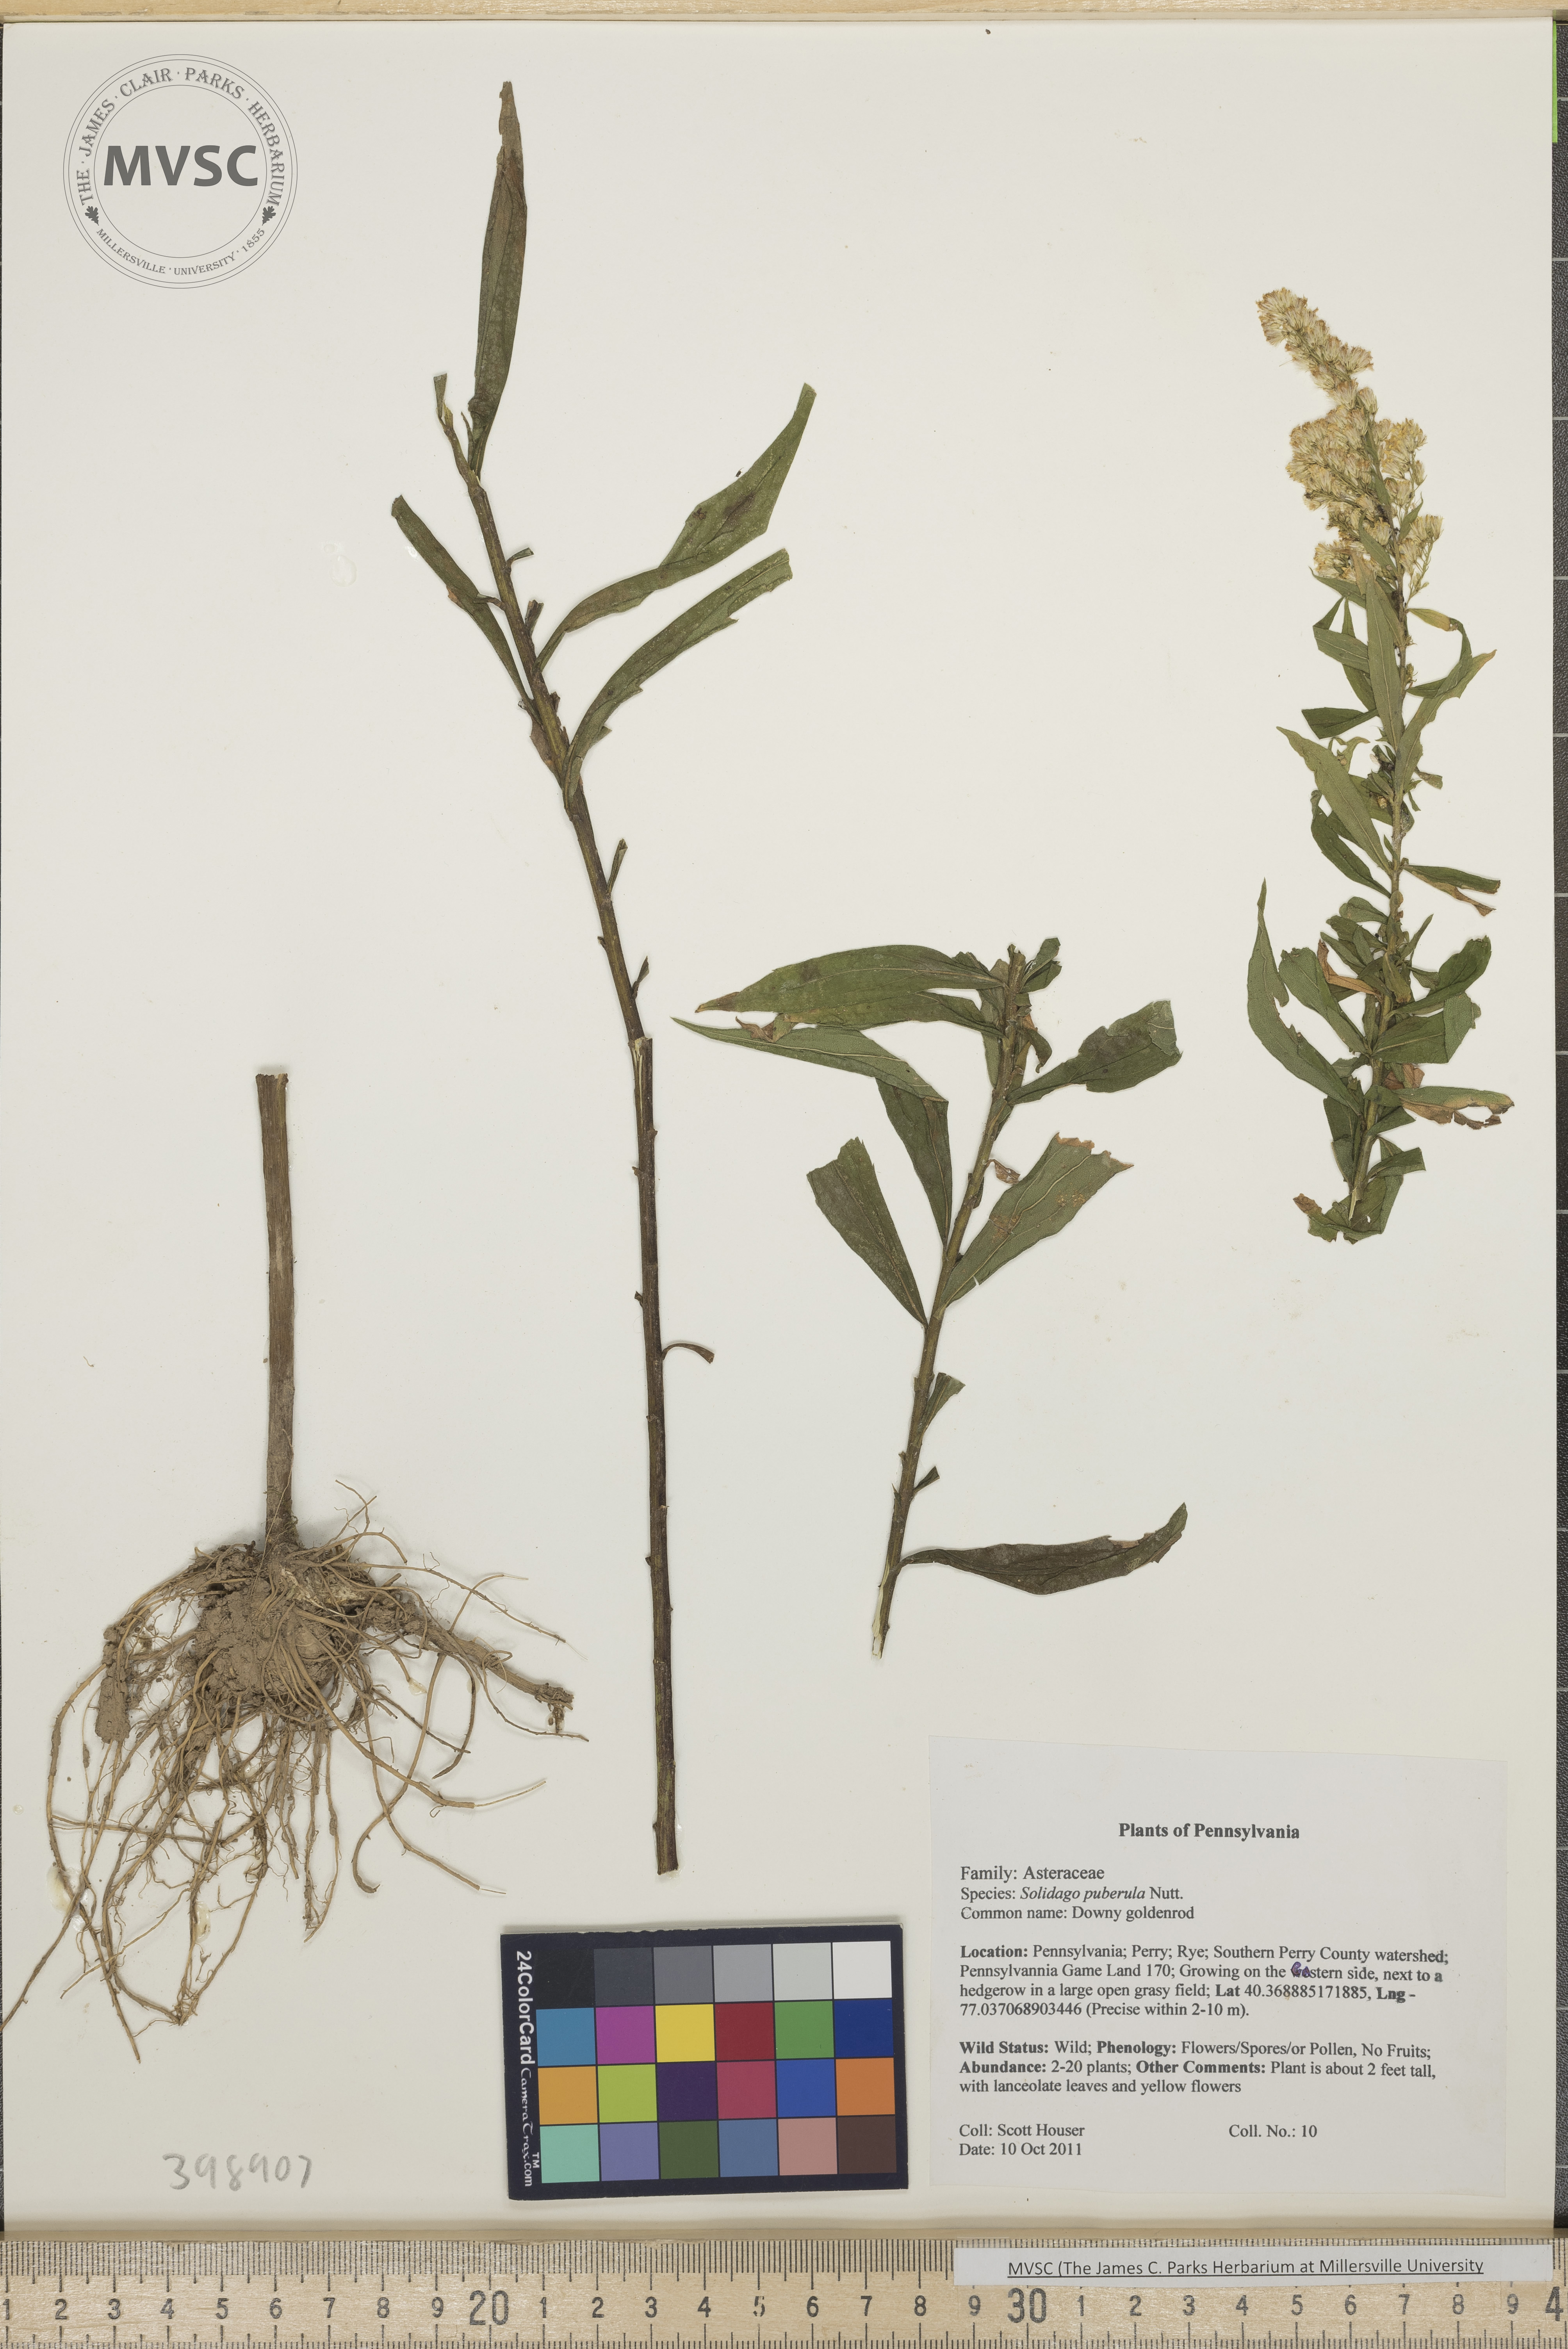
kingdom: Plantae
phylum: Tracheophyta
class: Magnoliopsida
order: Asterales
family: Asteraceae
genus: Solidago
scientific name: Solidago puberula
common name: Downy goldenrod
